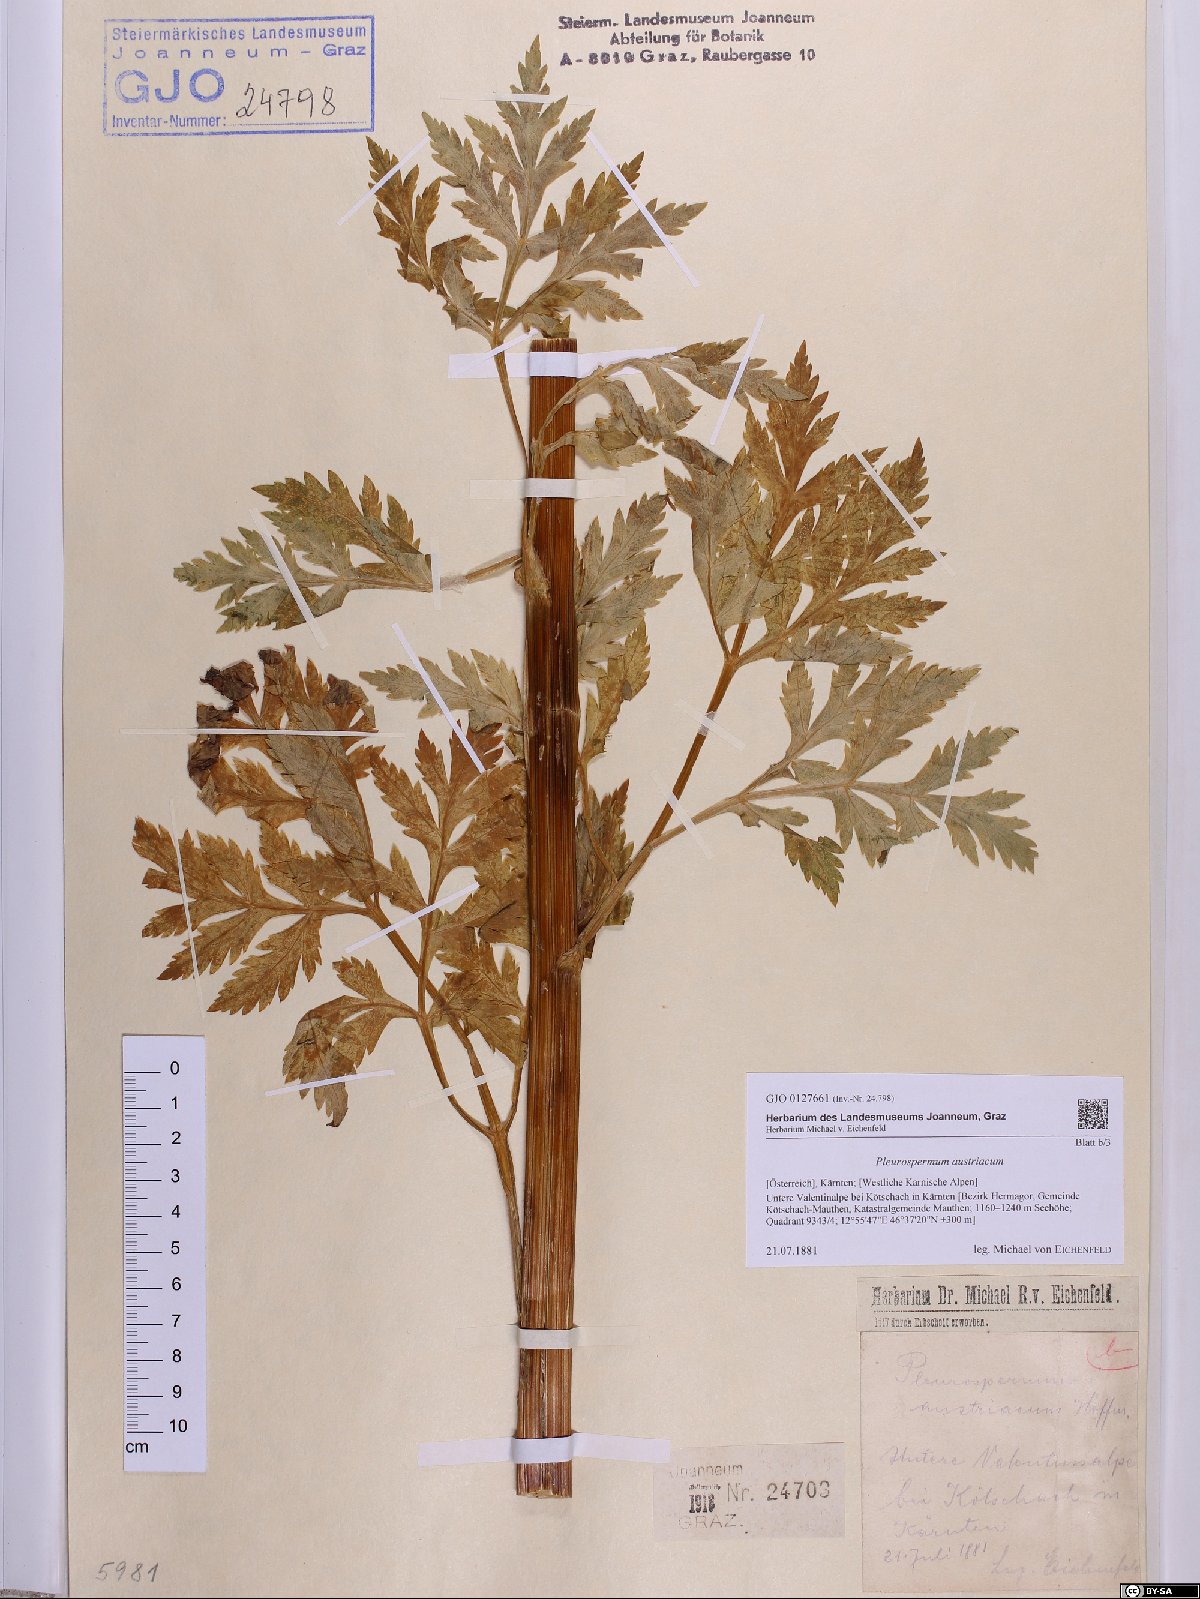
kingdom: Plantae
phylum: Tracheophyta
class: Magnoliopsida
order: Apiales
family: Apiaceae
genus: Pleurospermum
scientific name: Pleurospermum austriacum
